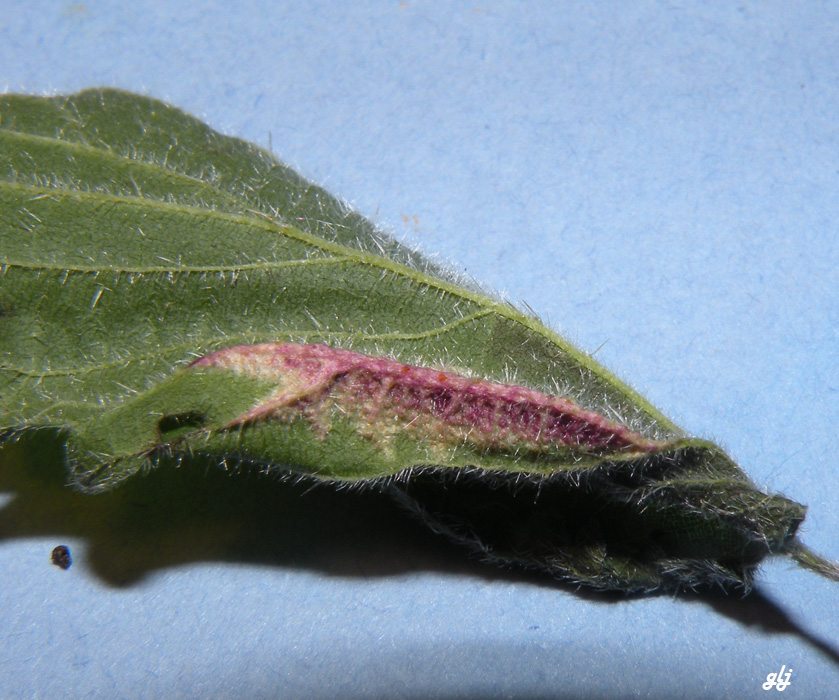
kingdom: Fungi
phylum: Basidiomycota
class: Pucciniomycetes
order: Pucciniales
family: Pucciniaceae
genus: Puccinia
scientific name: Puccinia urticata
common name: nældegalle-tvecellerust
